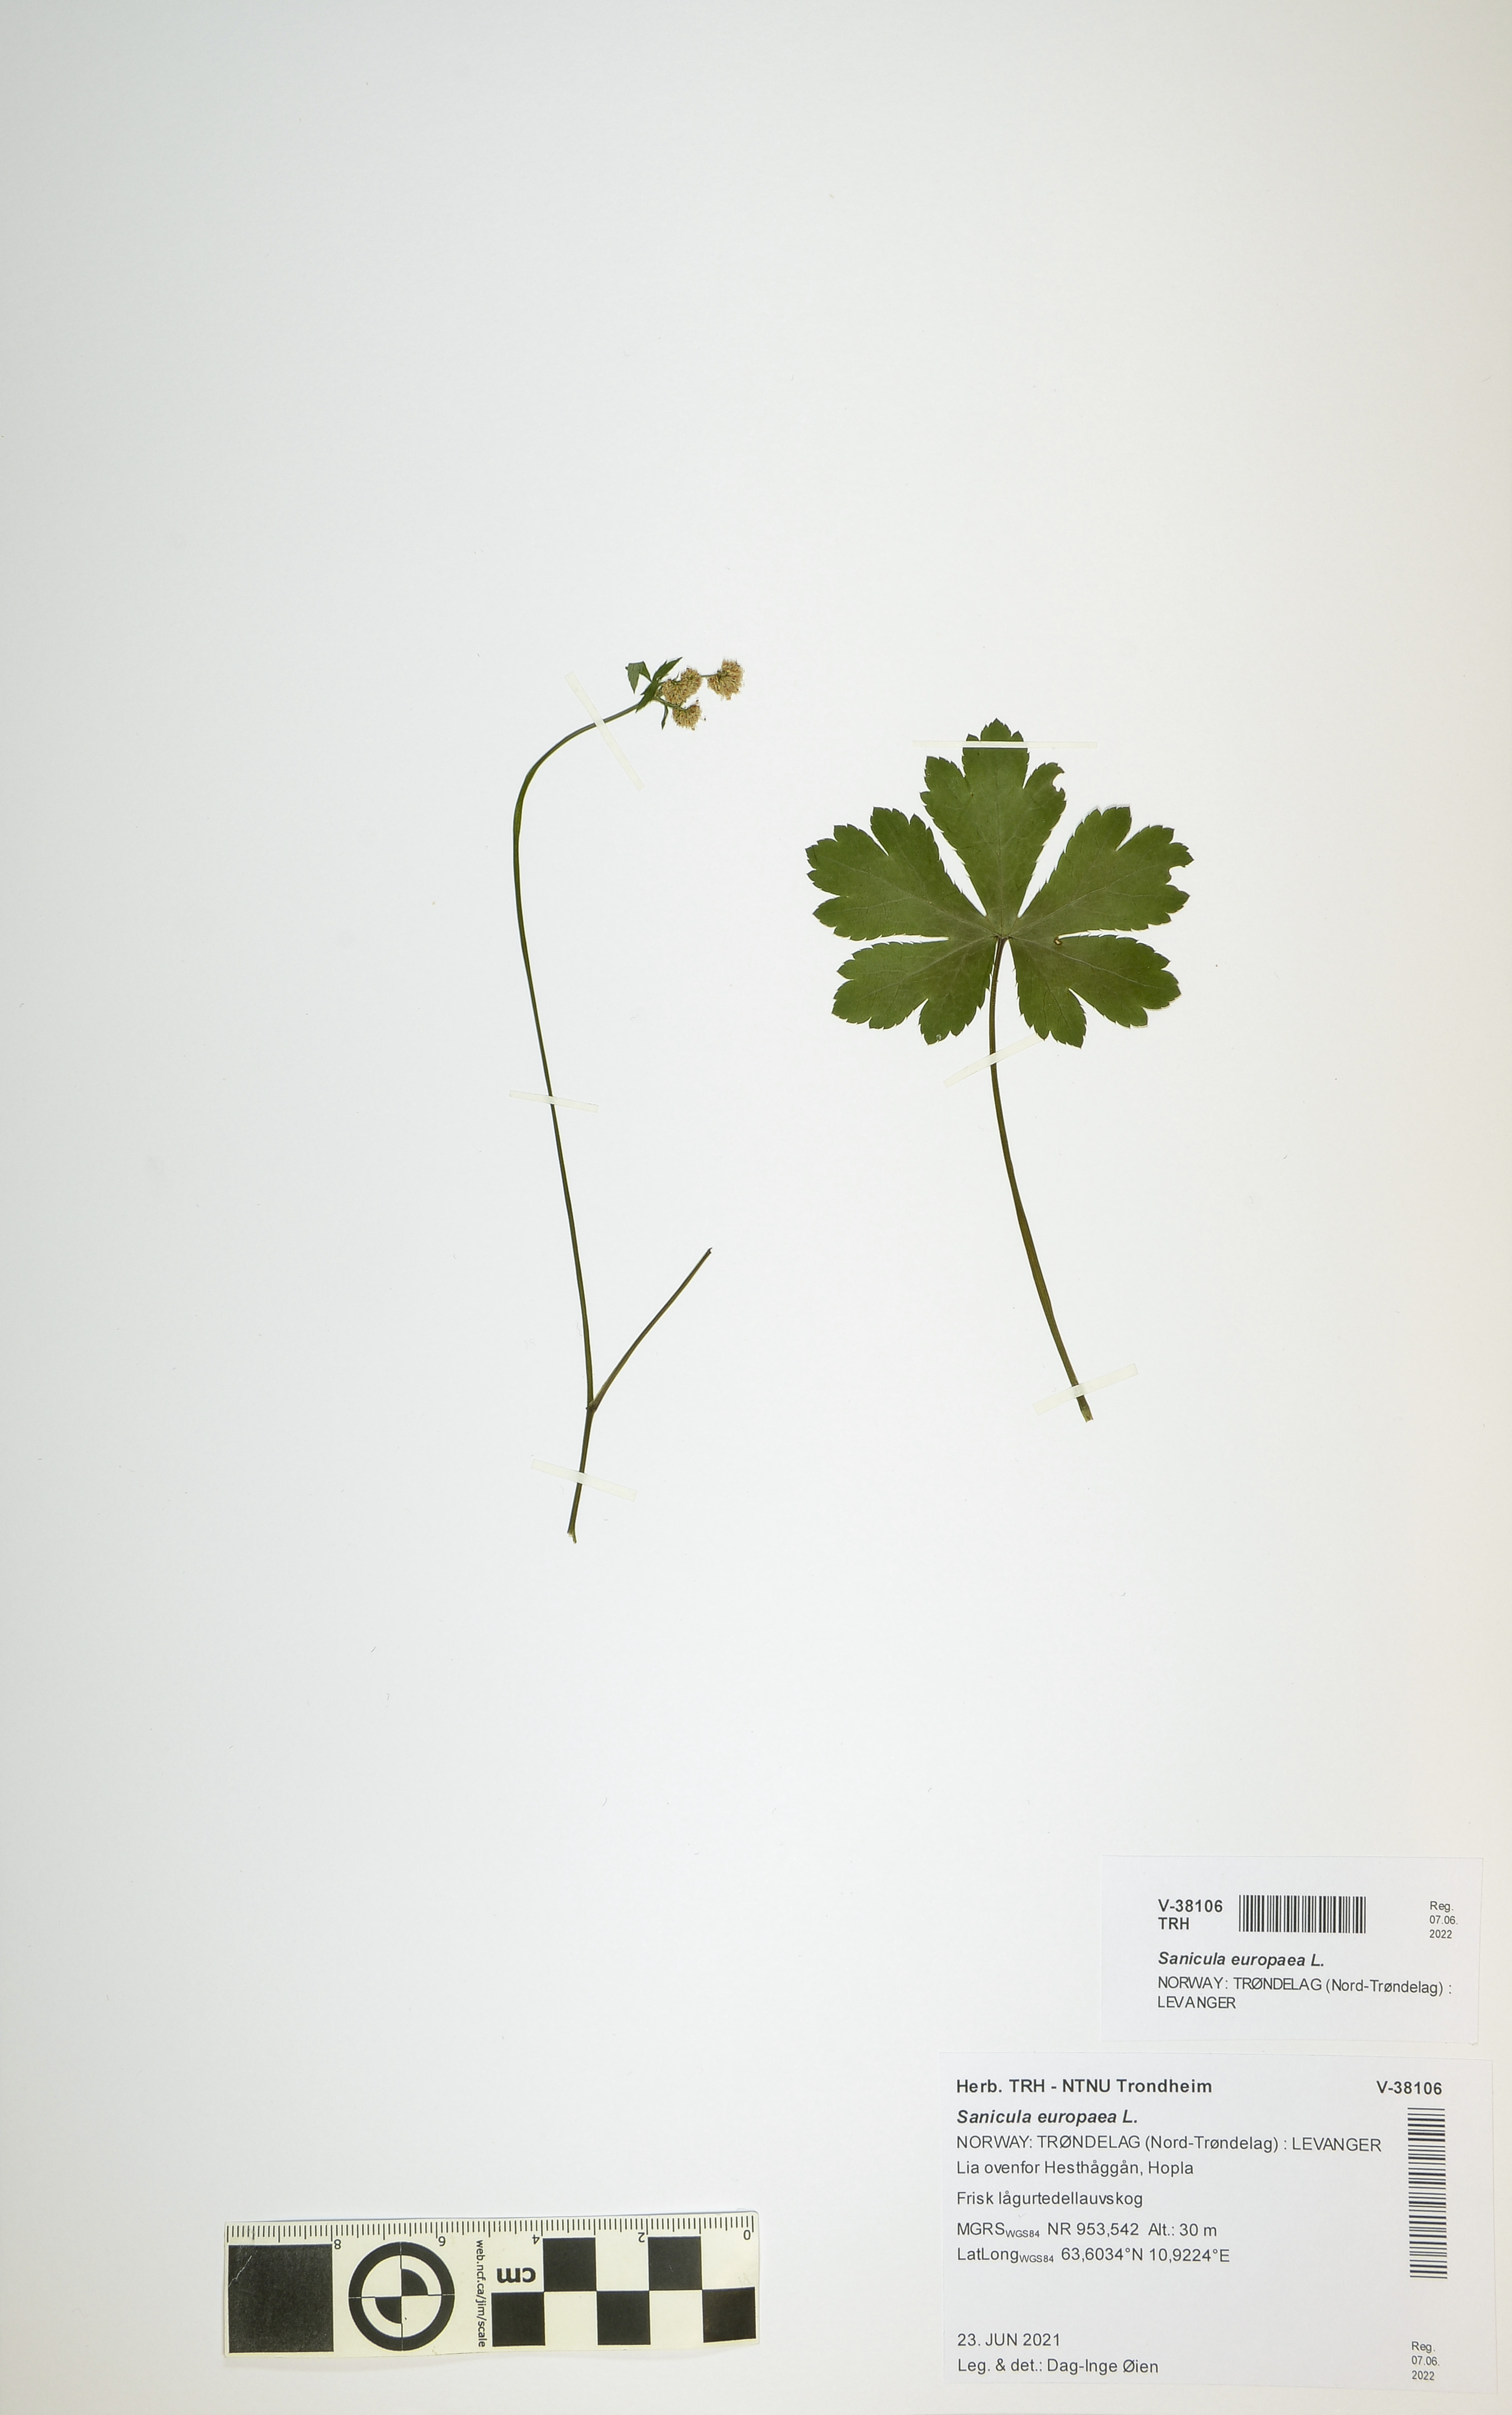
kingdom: Plantae
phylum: Tracheophyta
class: Magnoliopsida
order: Apiales
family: Apiaceae
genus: Sanicula
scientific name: Sanicula europaea
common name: Sanicle
